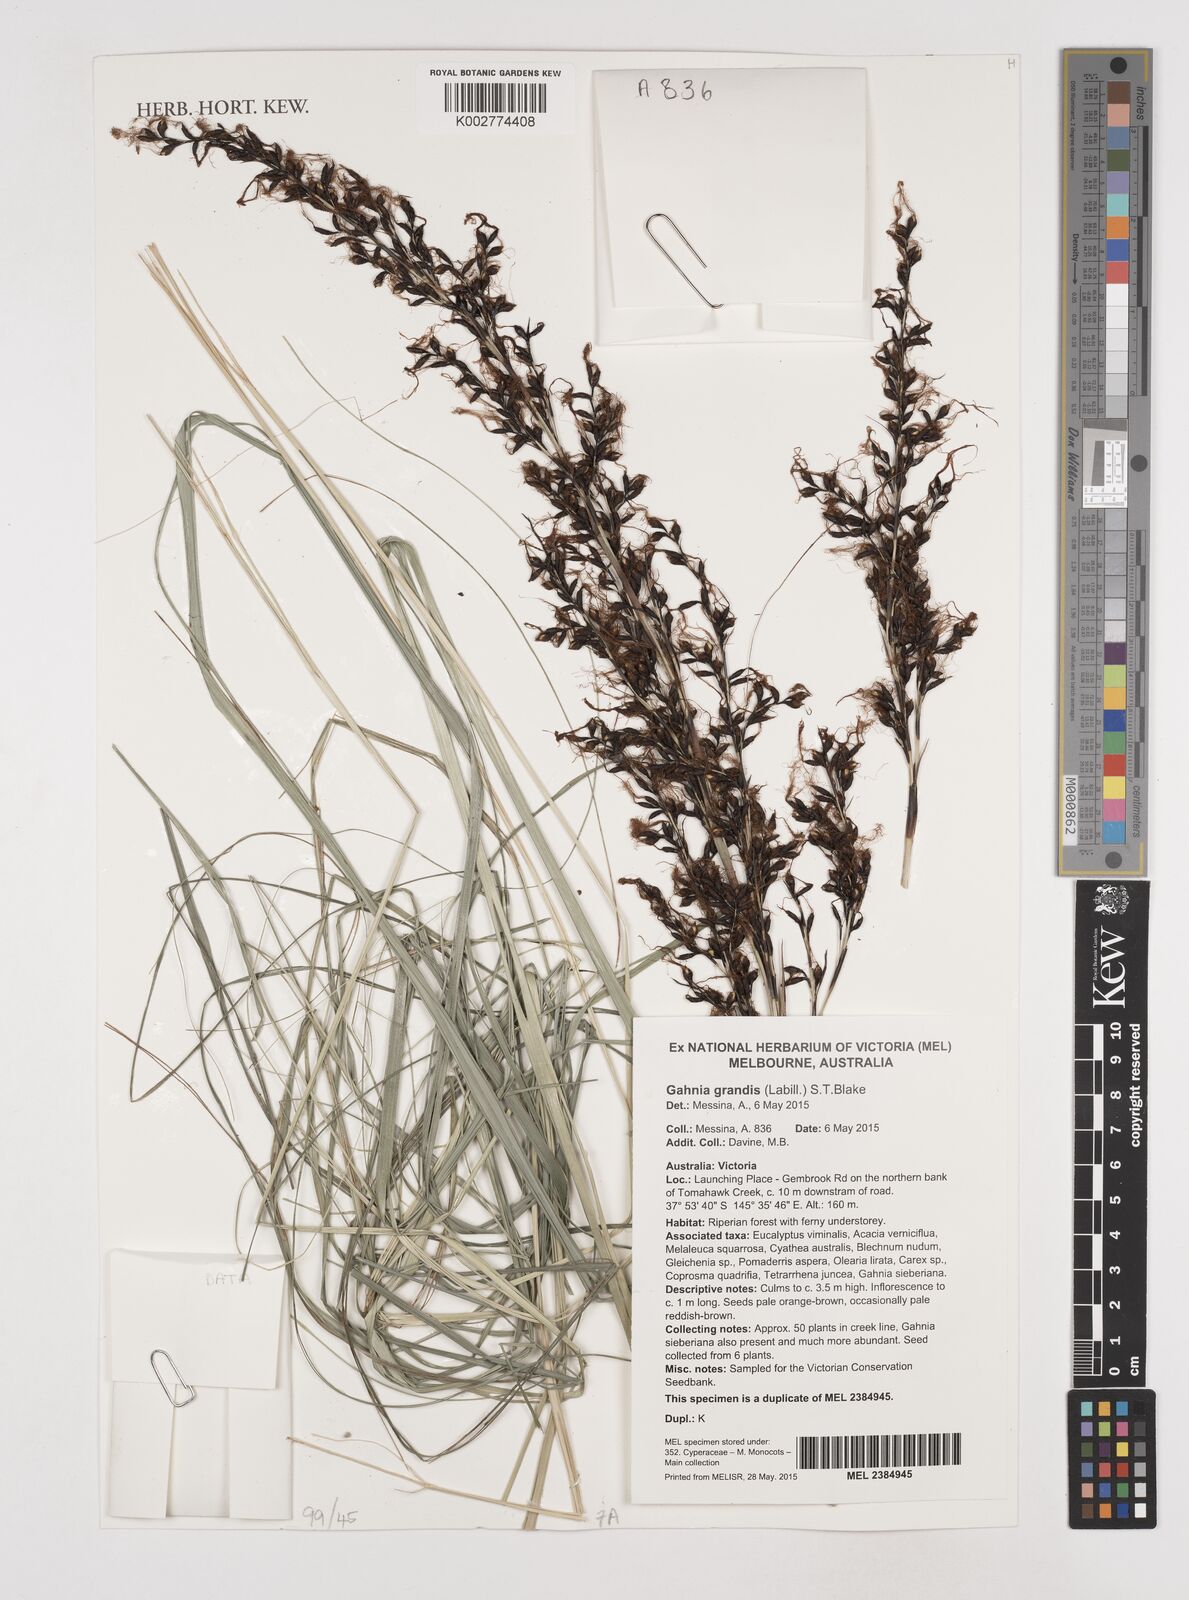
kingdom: Plantae
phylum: Tracheophyta
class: Liliopsida
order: Poales
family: Cyperaceae
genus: Gahnia
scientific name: Gahnia grandis
